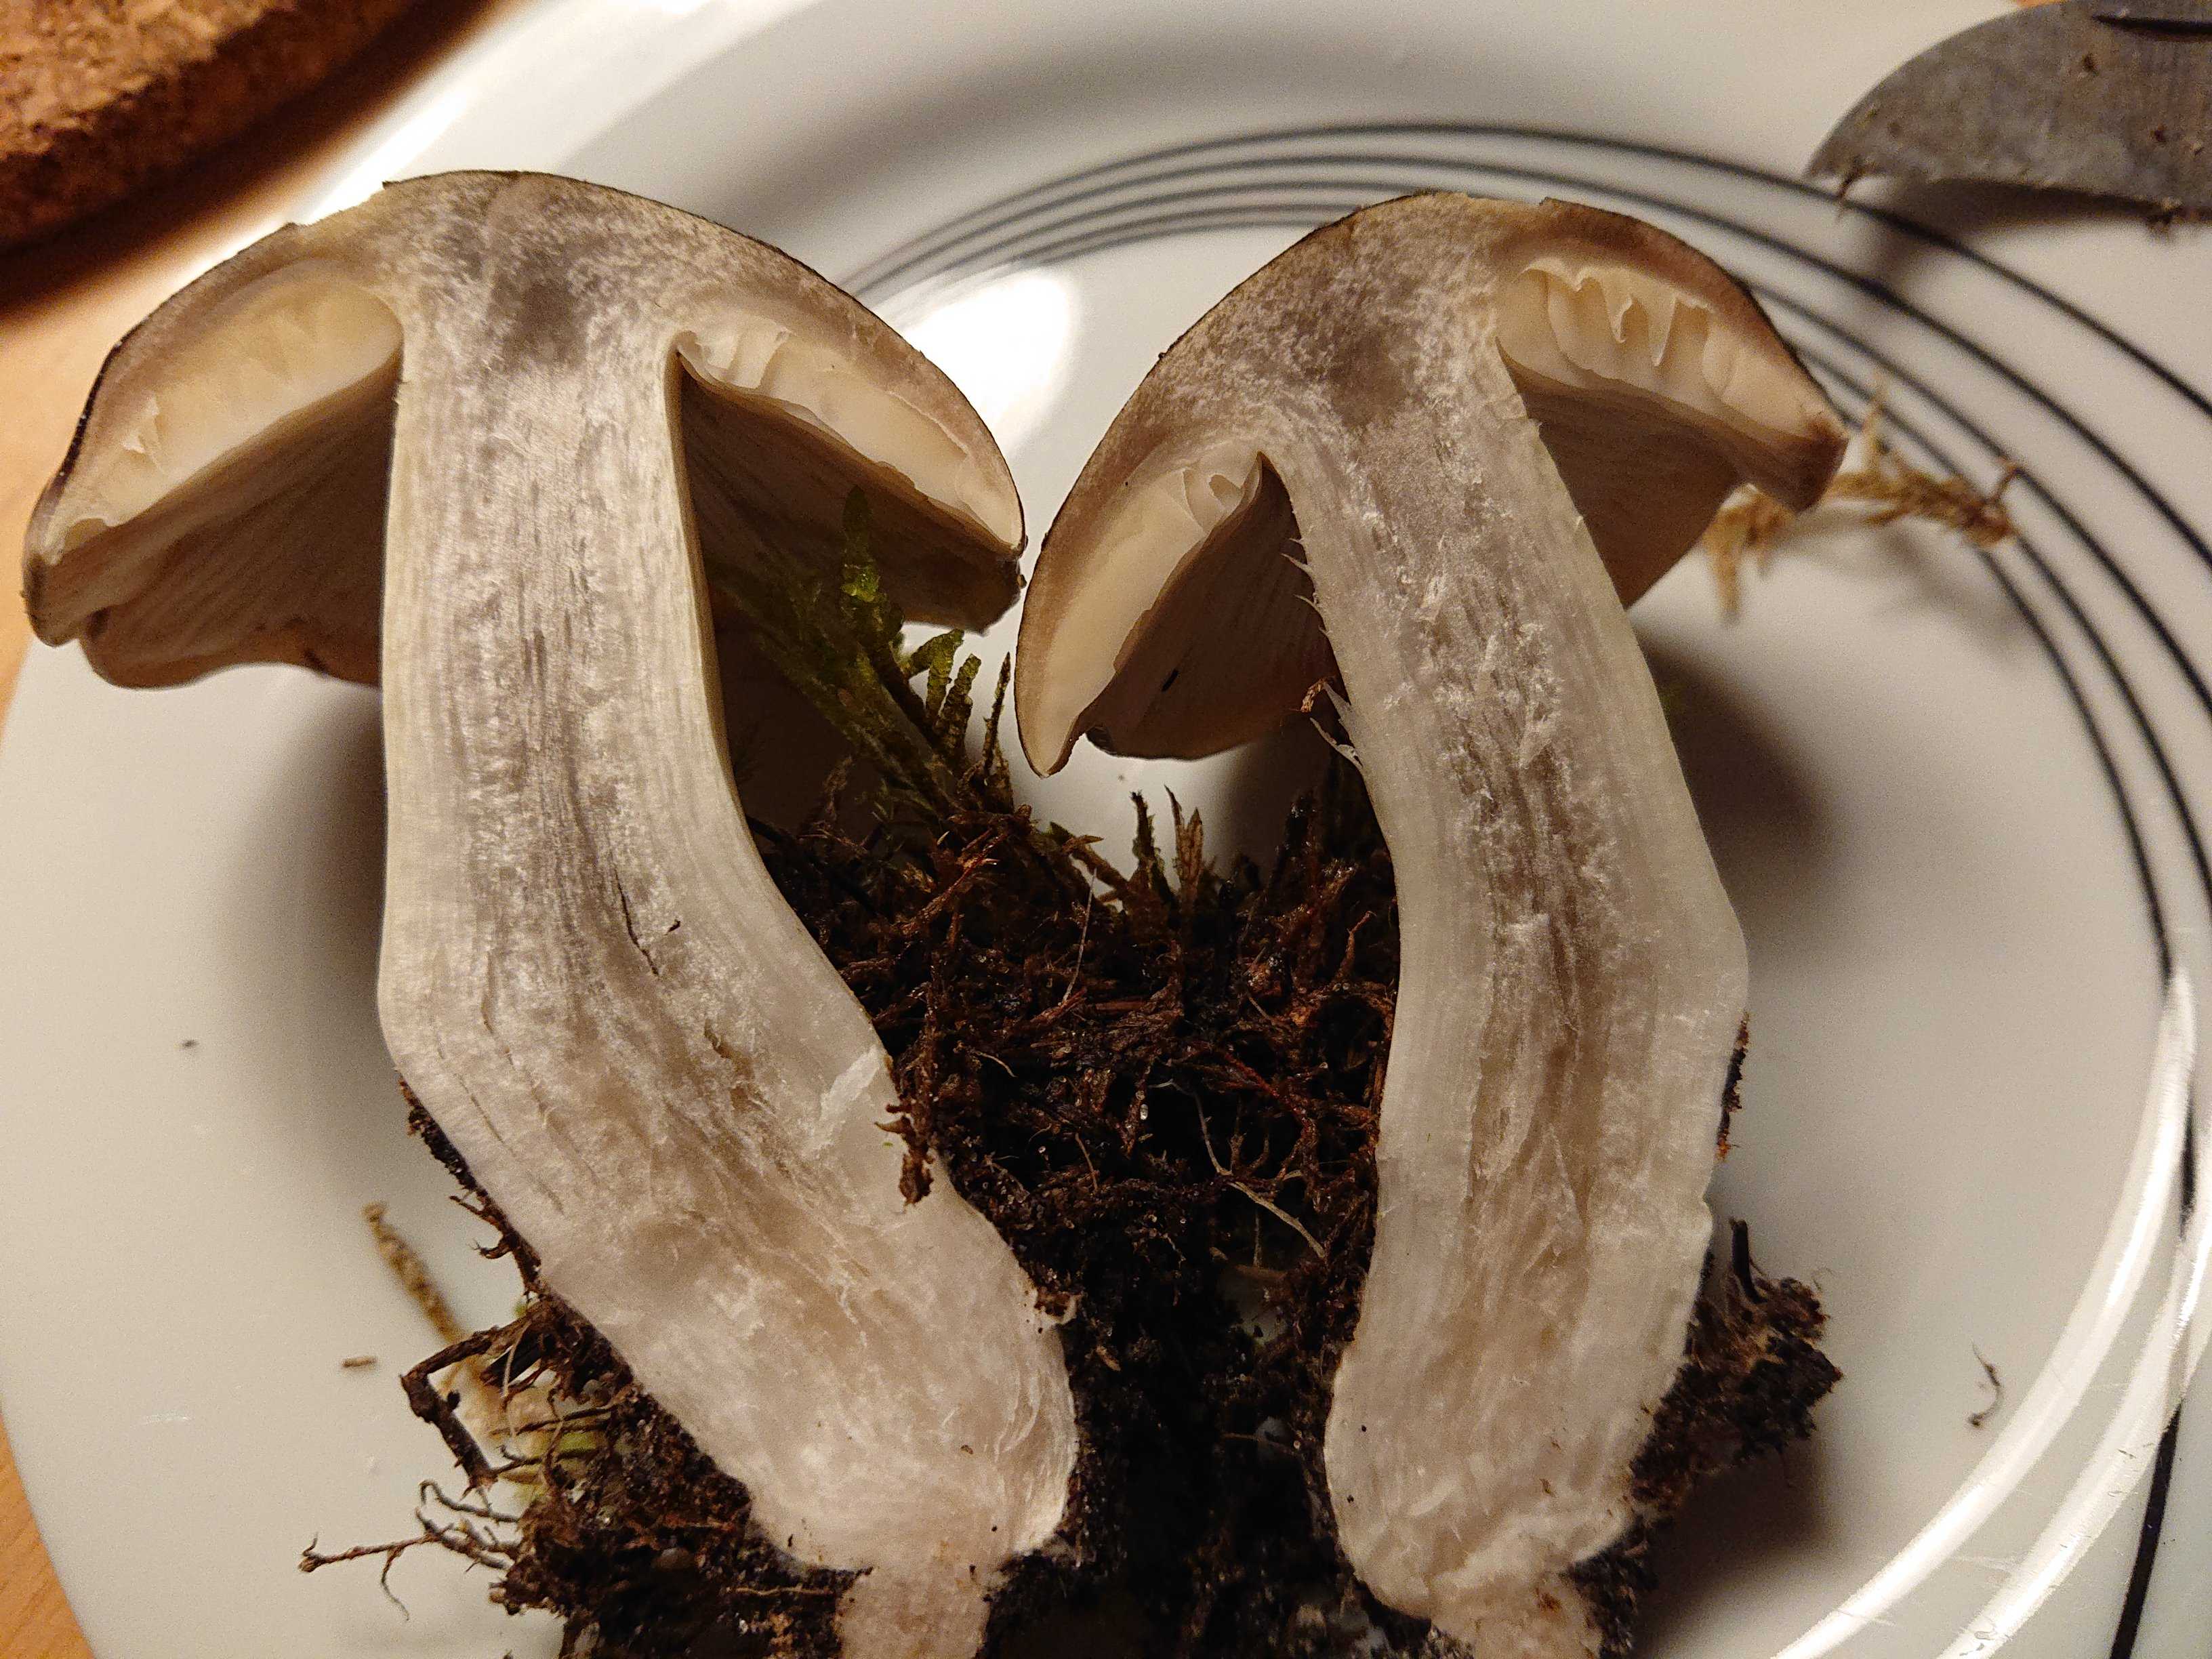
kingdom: Fungi
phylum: Basidiomycota
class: Agaricomycetes
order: Agaricales
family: Tricholomataceae
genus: Tricholoma
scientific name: Tricholoma portentosum
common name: grå ridderhat
